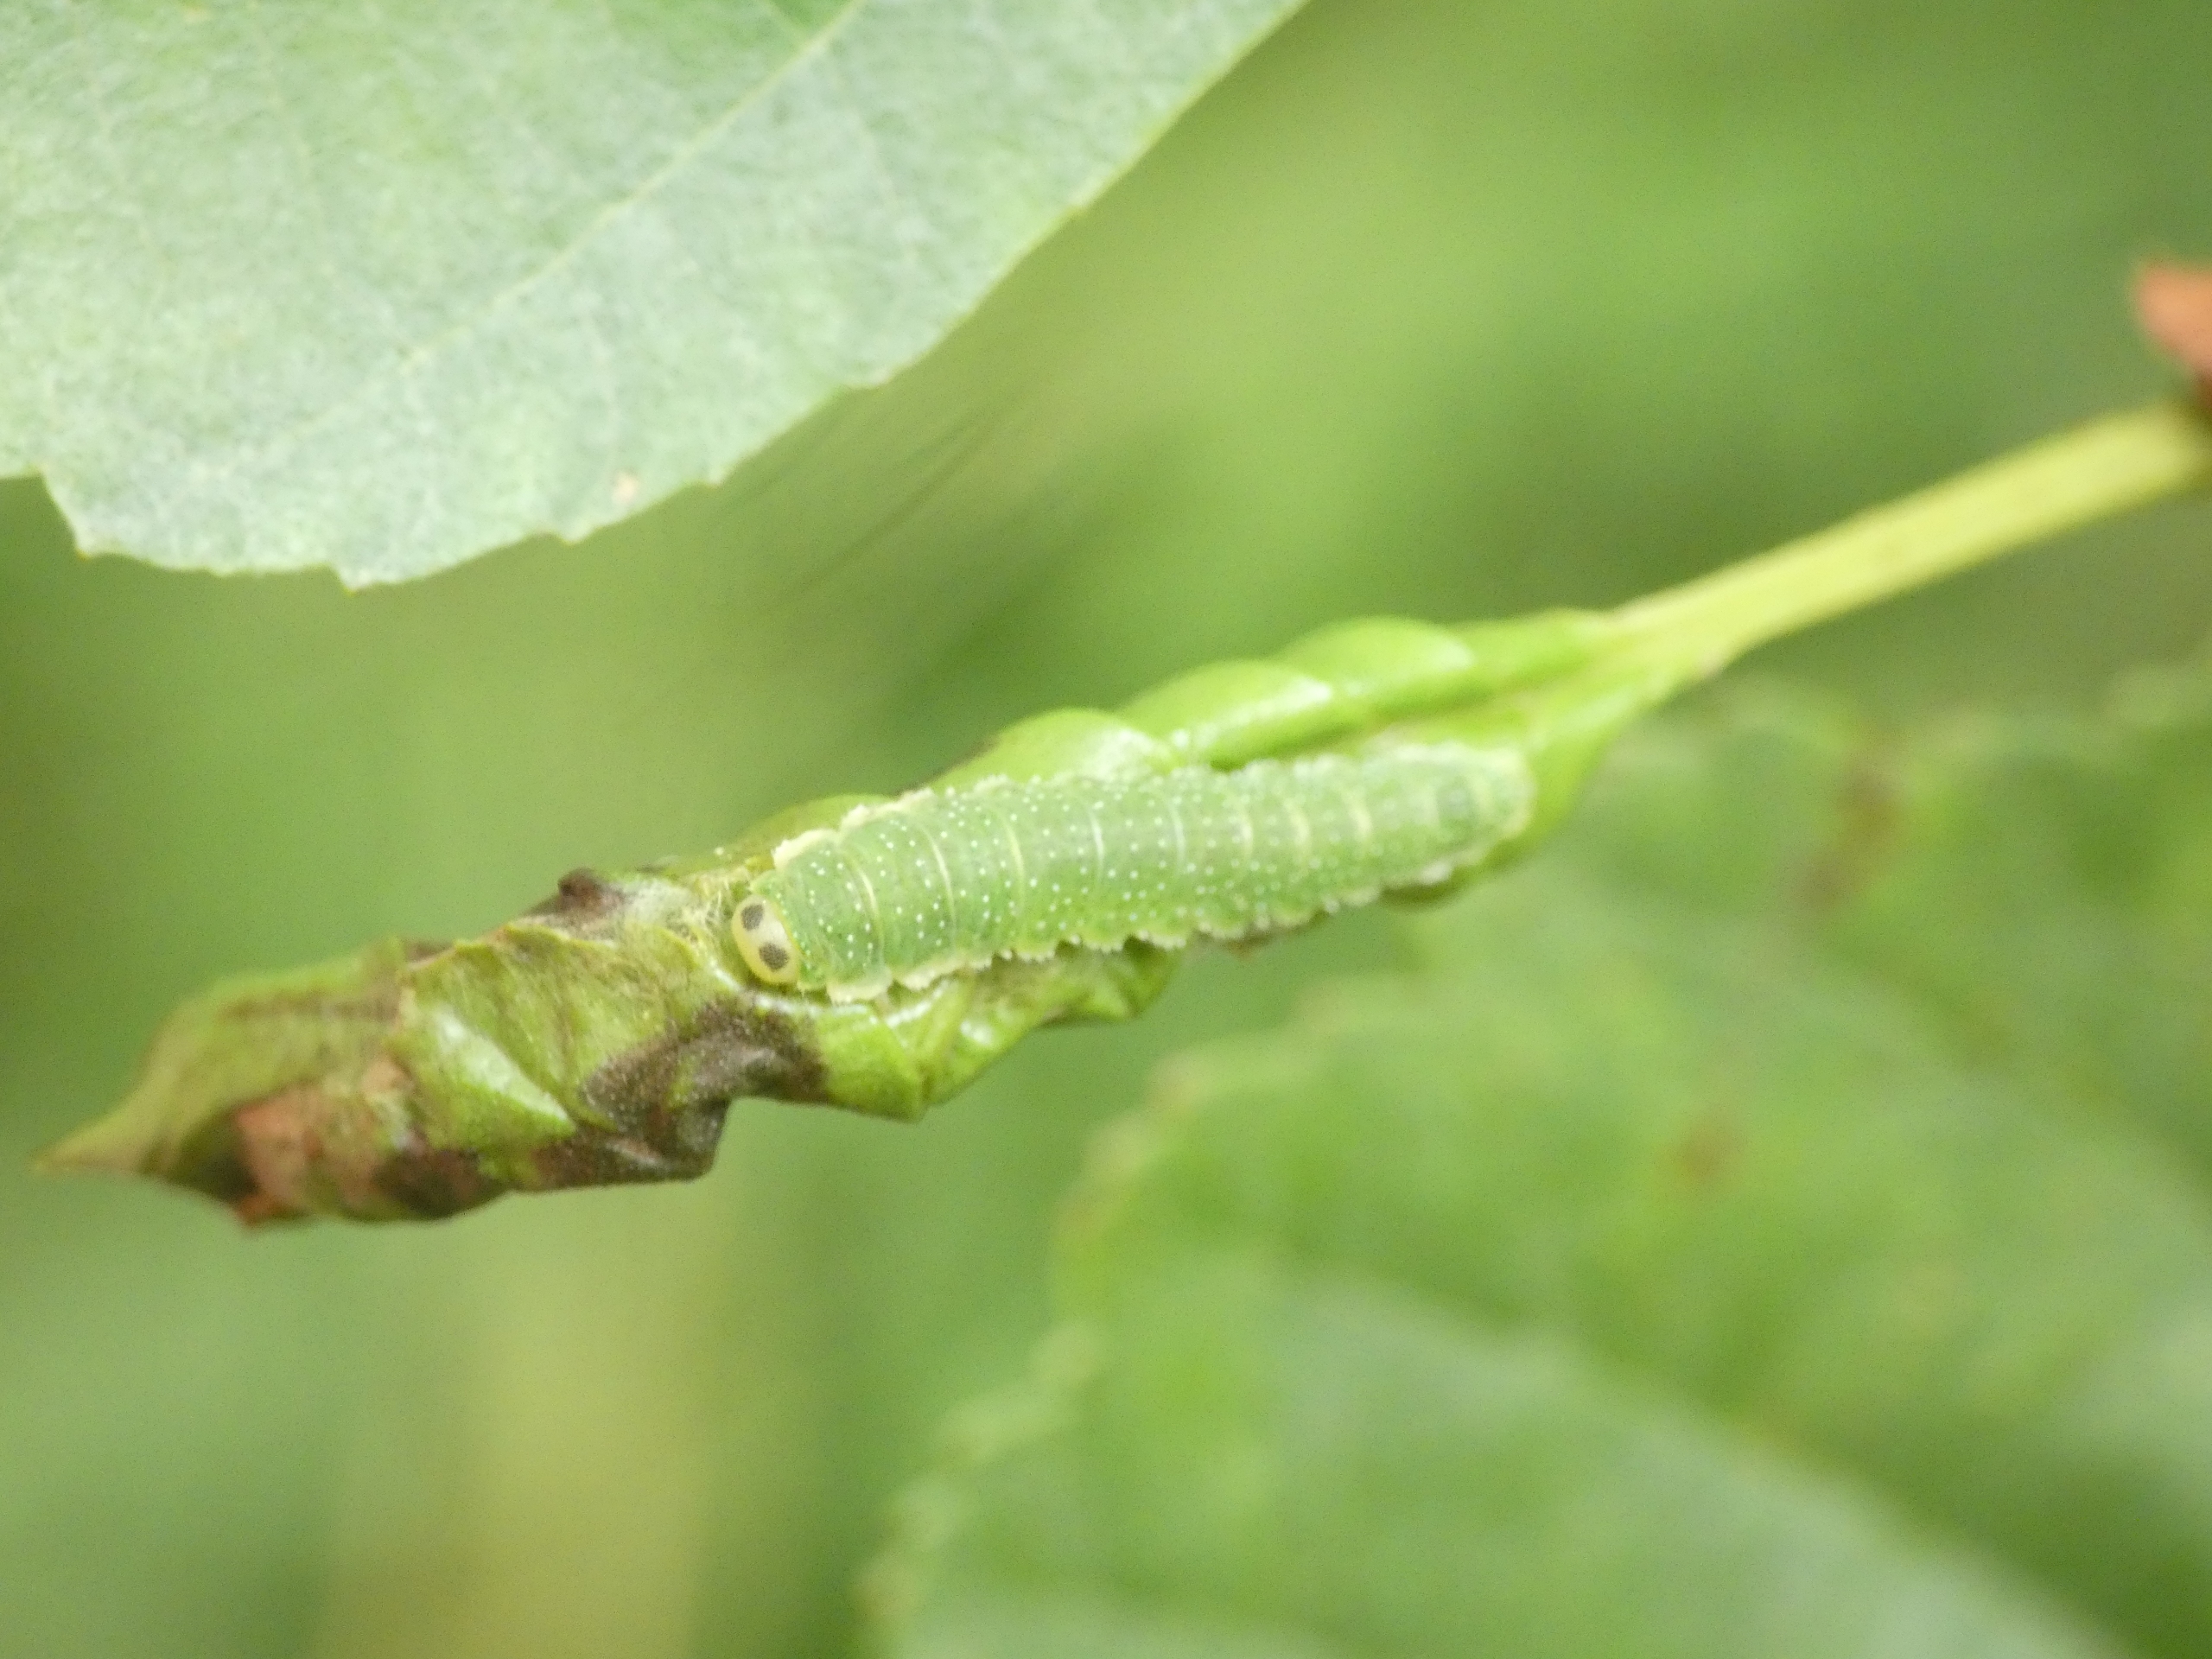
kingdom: Animalia
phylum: Arthropoda
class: Insecta
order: Hymenoptera
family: Tenthredinidae
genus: Nematinus
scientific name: Nematinus steini
